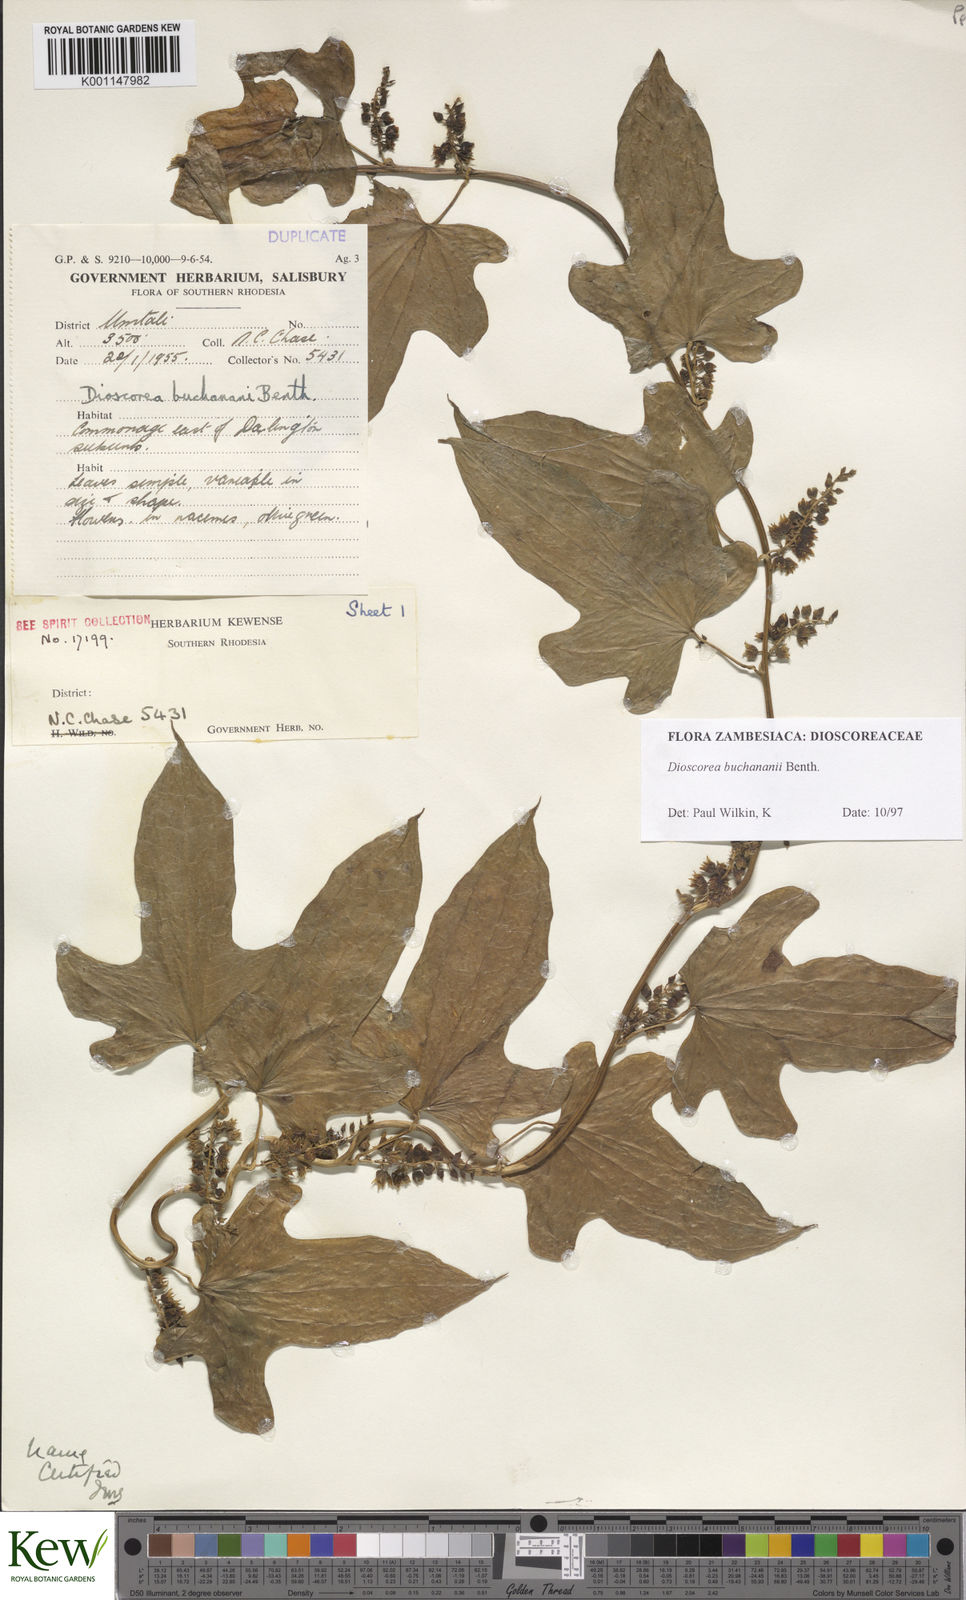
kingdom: Plantae
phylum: Tracheophyta
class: Liliopsida
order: Dioscoreales
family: Dioscoreaceae
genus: Dioscorea
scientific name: Dioscorea buchananii
